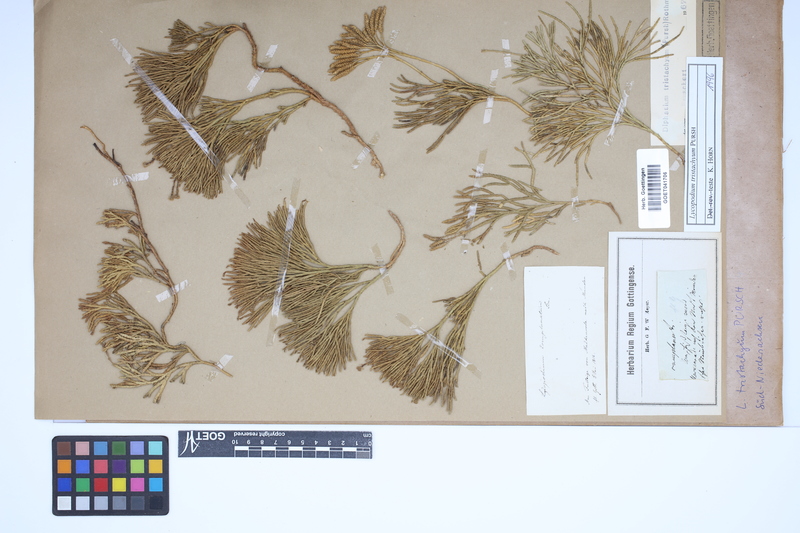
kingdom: Plantae
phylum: Tracheophyta
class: Lycopodiopsida
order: Lycopodiales
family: Lycopodiaceae
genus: Diphasiastrum
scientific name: Diphasiastrum tristachyum
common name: Blue ground-cedar
